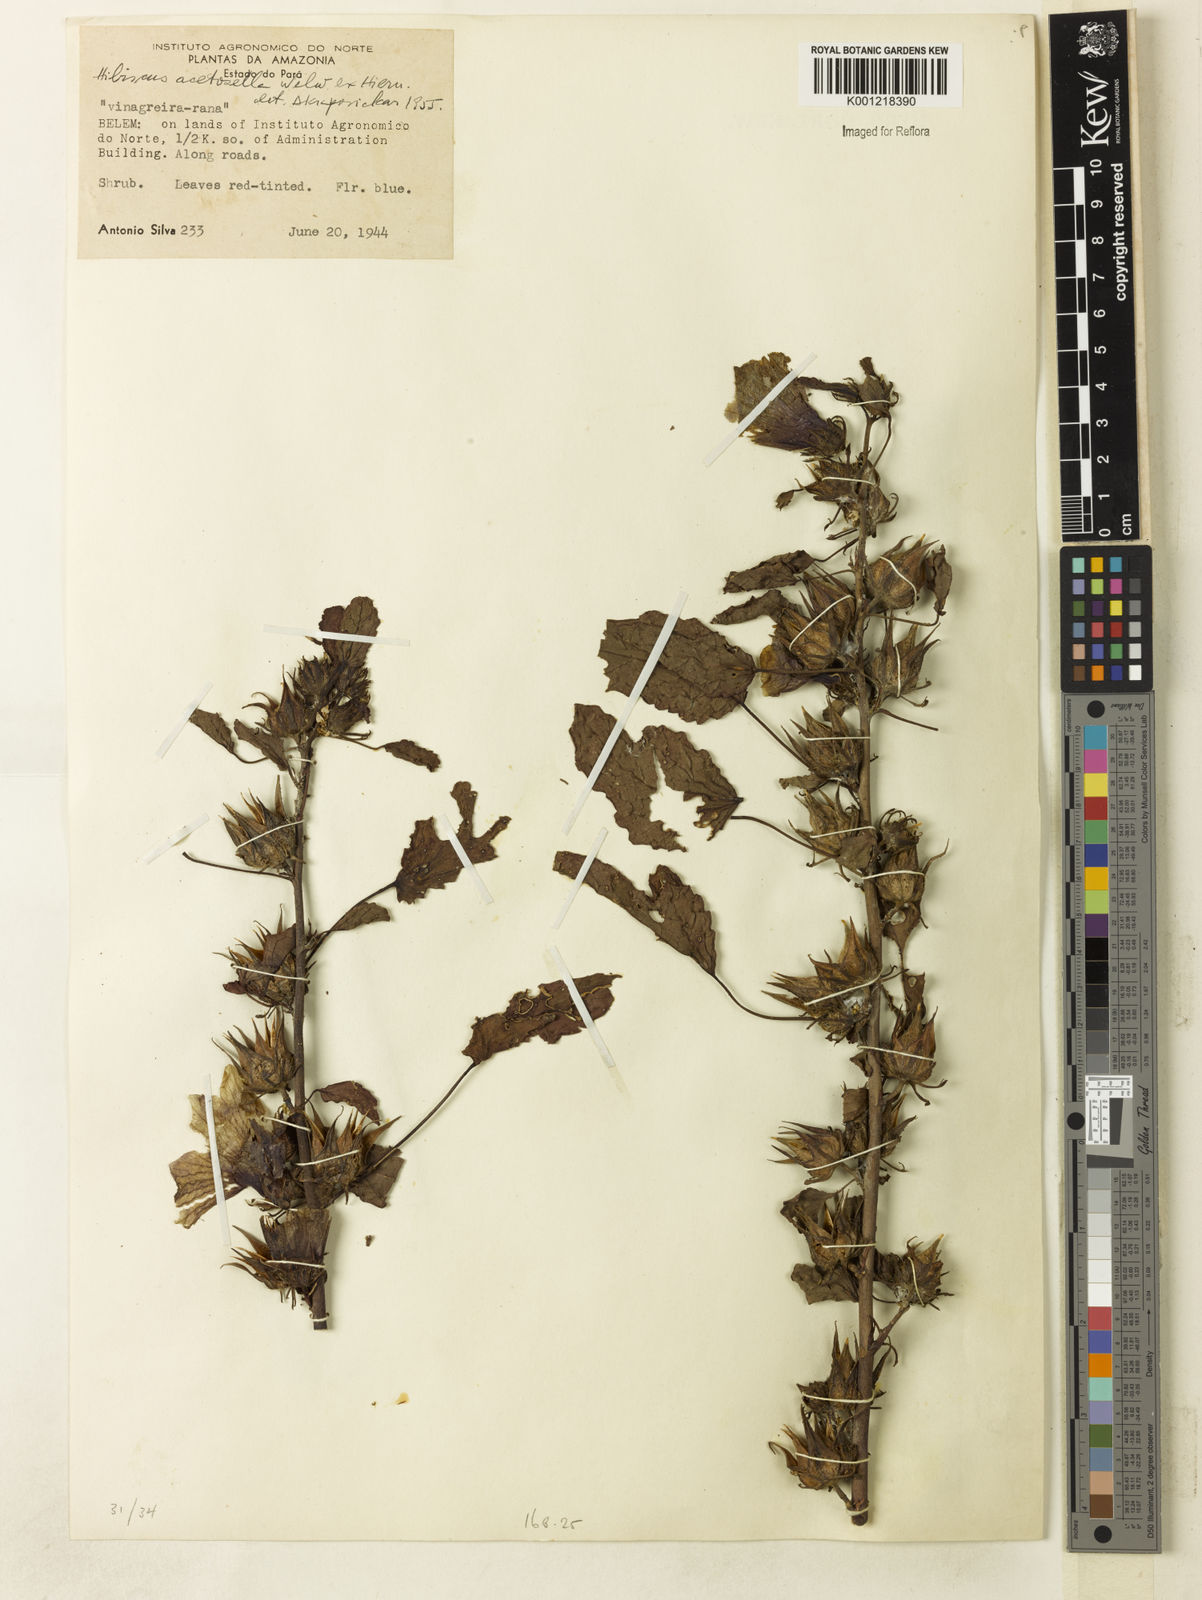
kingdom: Plantae
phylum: Tracheophyta
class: Magnoliopsida
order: Malvales
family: Malvaceae
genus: Hibiscus
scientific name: Hibiscus
